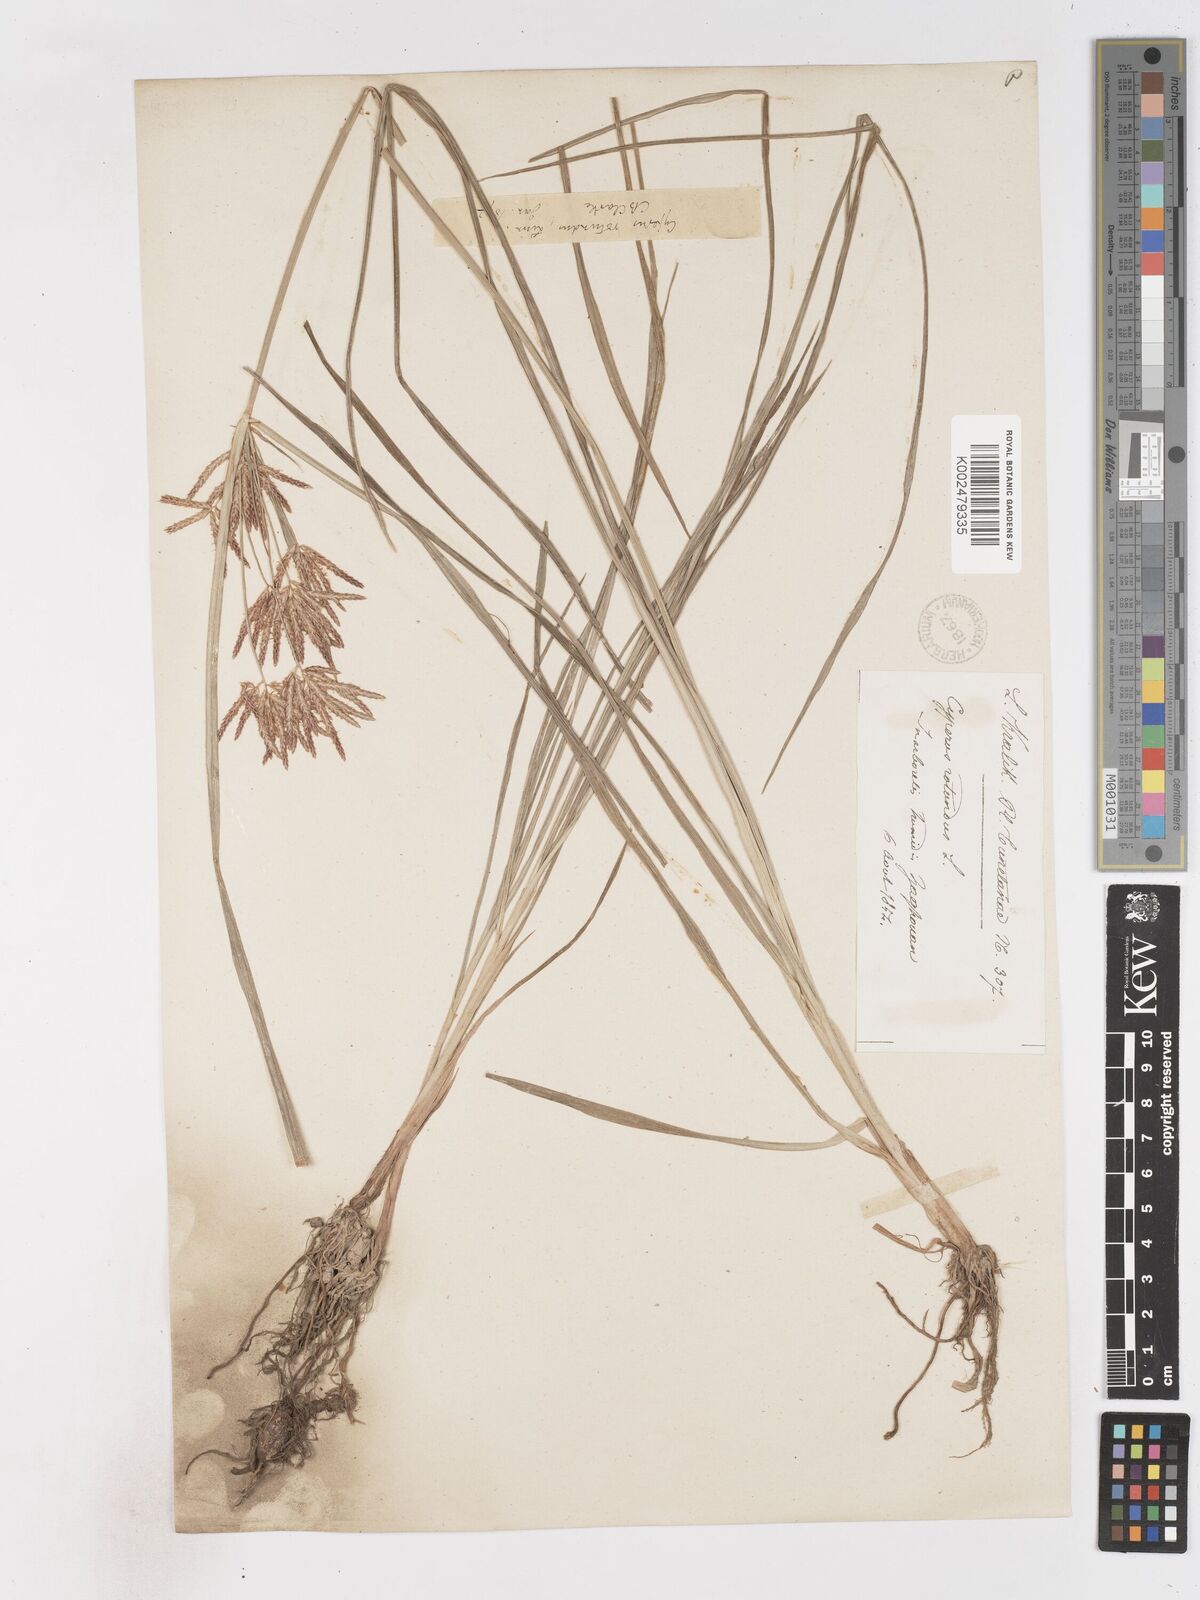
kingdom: Plantae
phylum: Tracheophyta
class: Liliopsida
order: Poales
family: Cyperaceae
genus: Cyperus
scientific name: Cyperus rotundus
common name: Nutgrass
